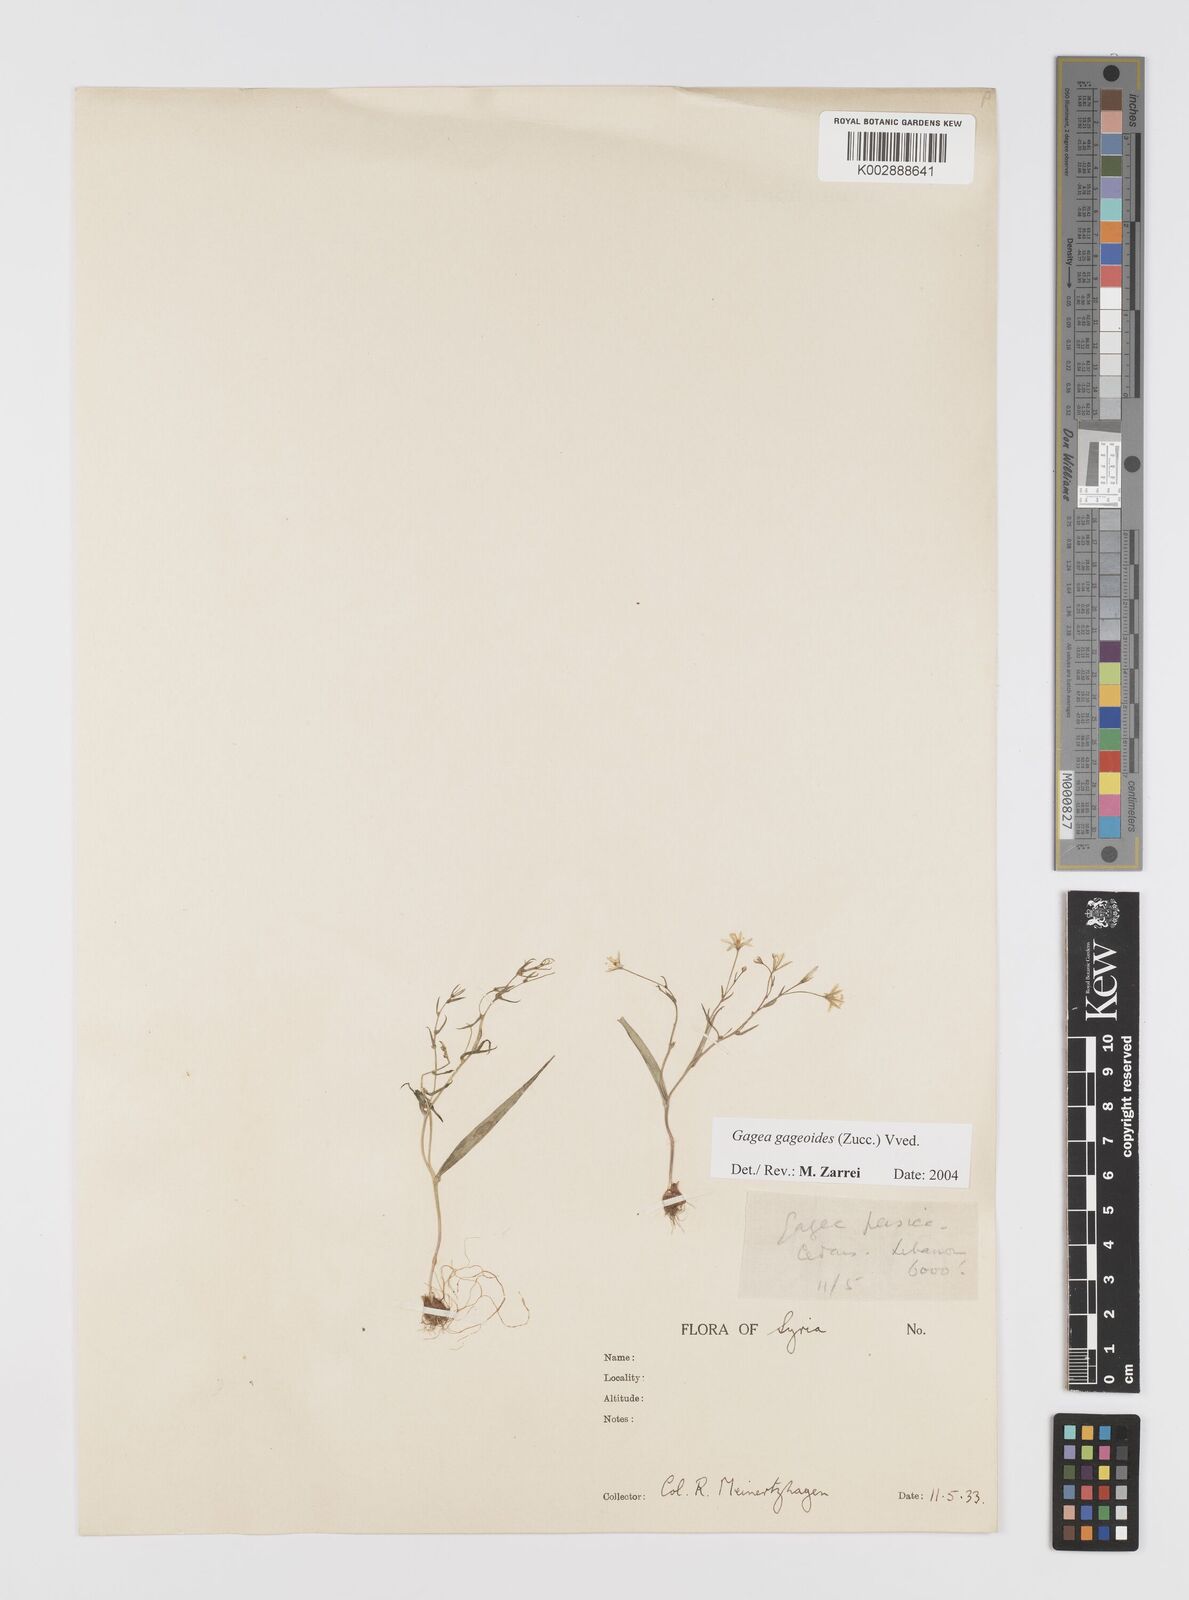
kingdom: Plantae
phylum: Tracheophyta
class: Liliopsida
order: Liliales
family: Liliaceae
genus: Gagea
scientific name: Gagea gageoides
